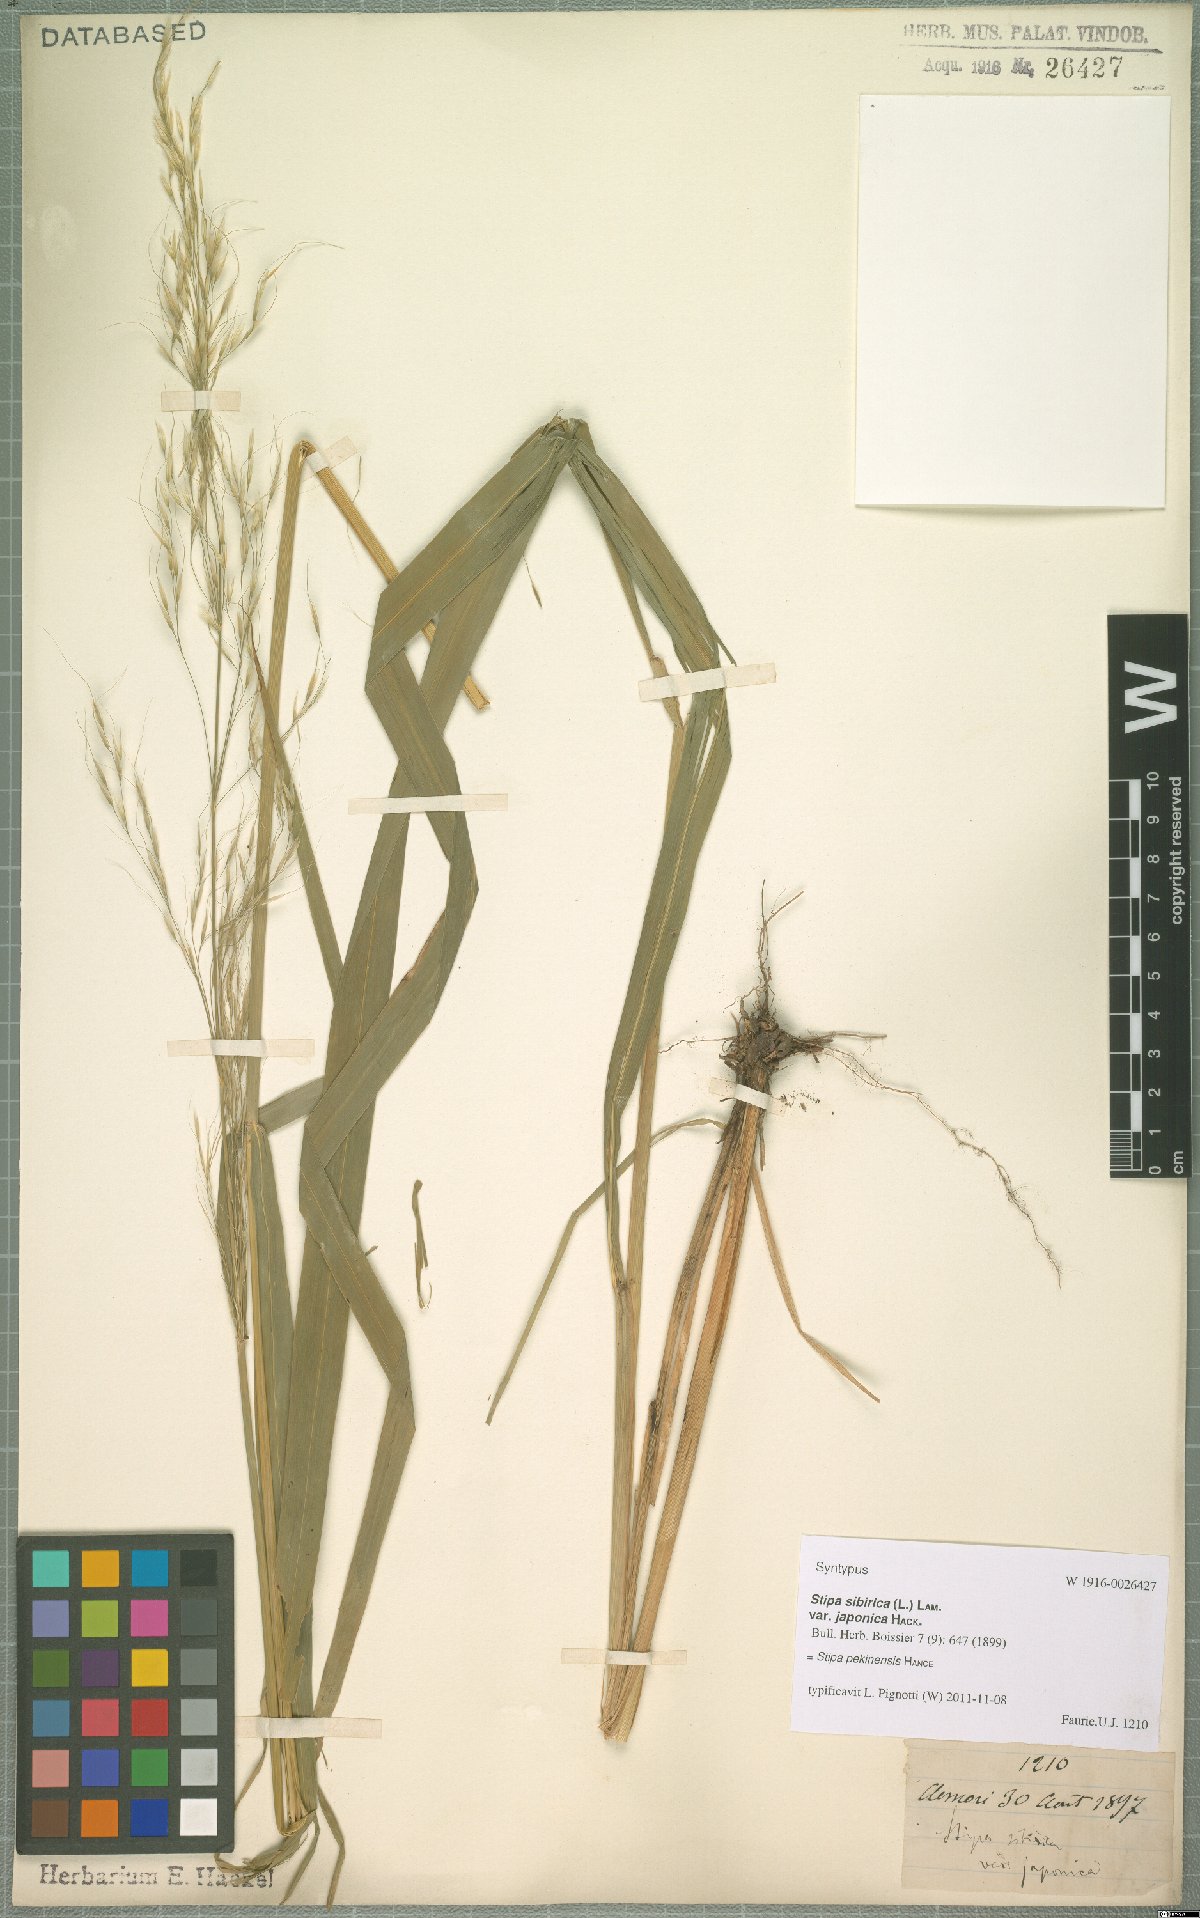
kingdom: Plantae
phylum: Tracheophyta
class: Liliopsida
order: Poales
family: Poaceae
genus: Achnatherum
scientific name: Achnatherum pekinense
